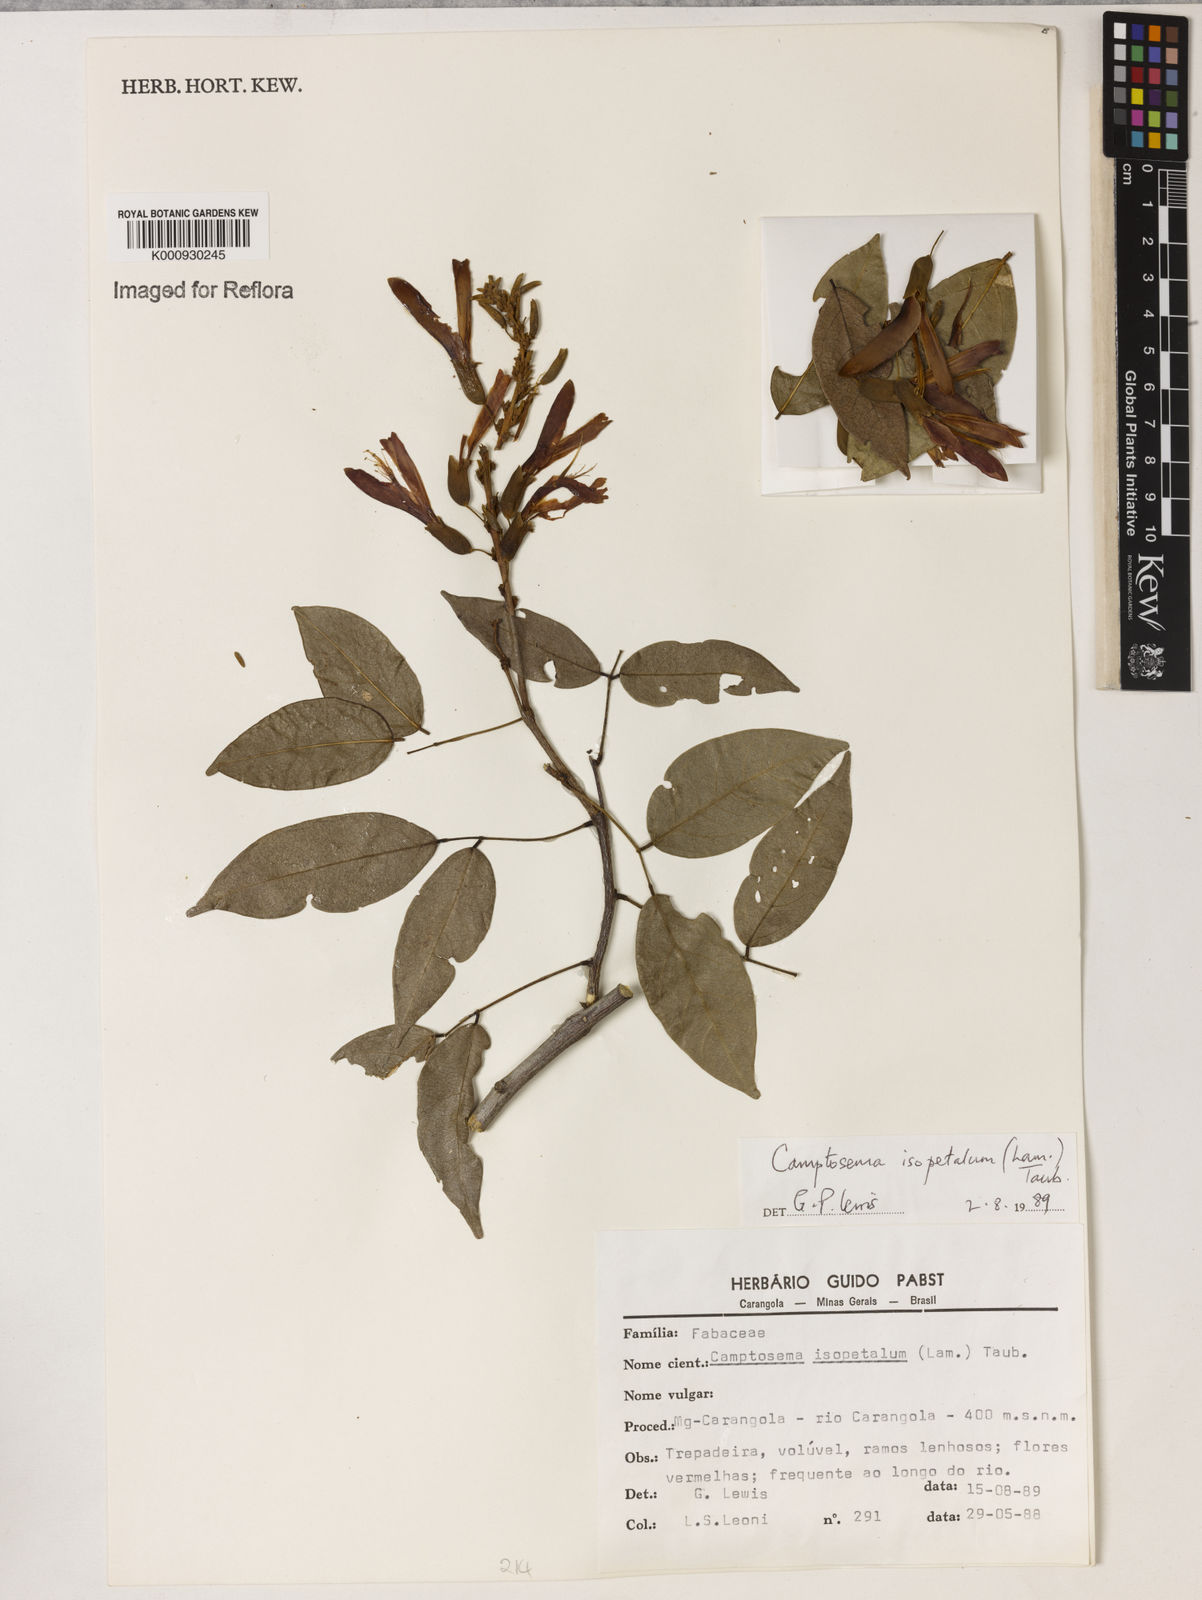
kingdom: Plantae
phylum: Tracheophyta
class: Magnoliopsida
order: Fabales
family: Fabaceae
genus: Cratylia
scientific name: Cratylia isopetala
